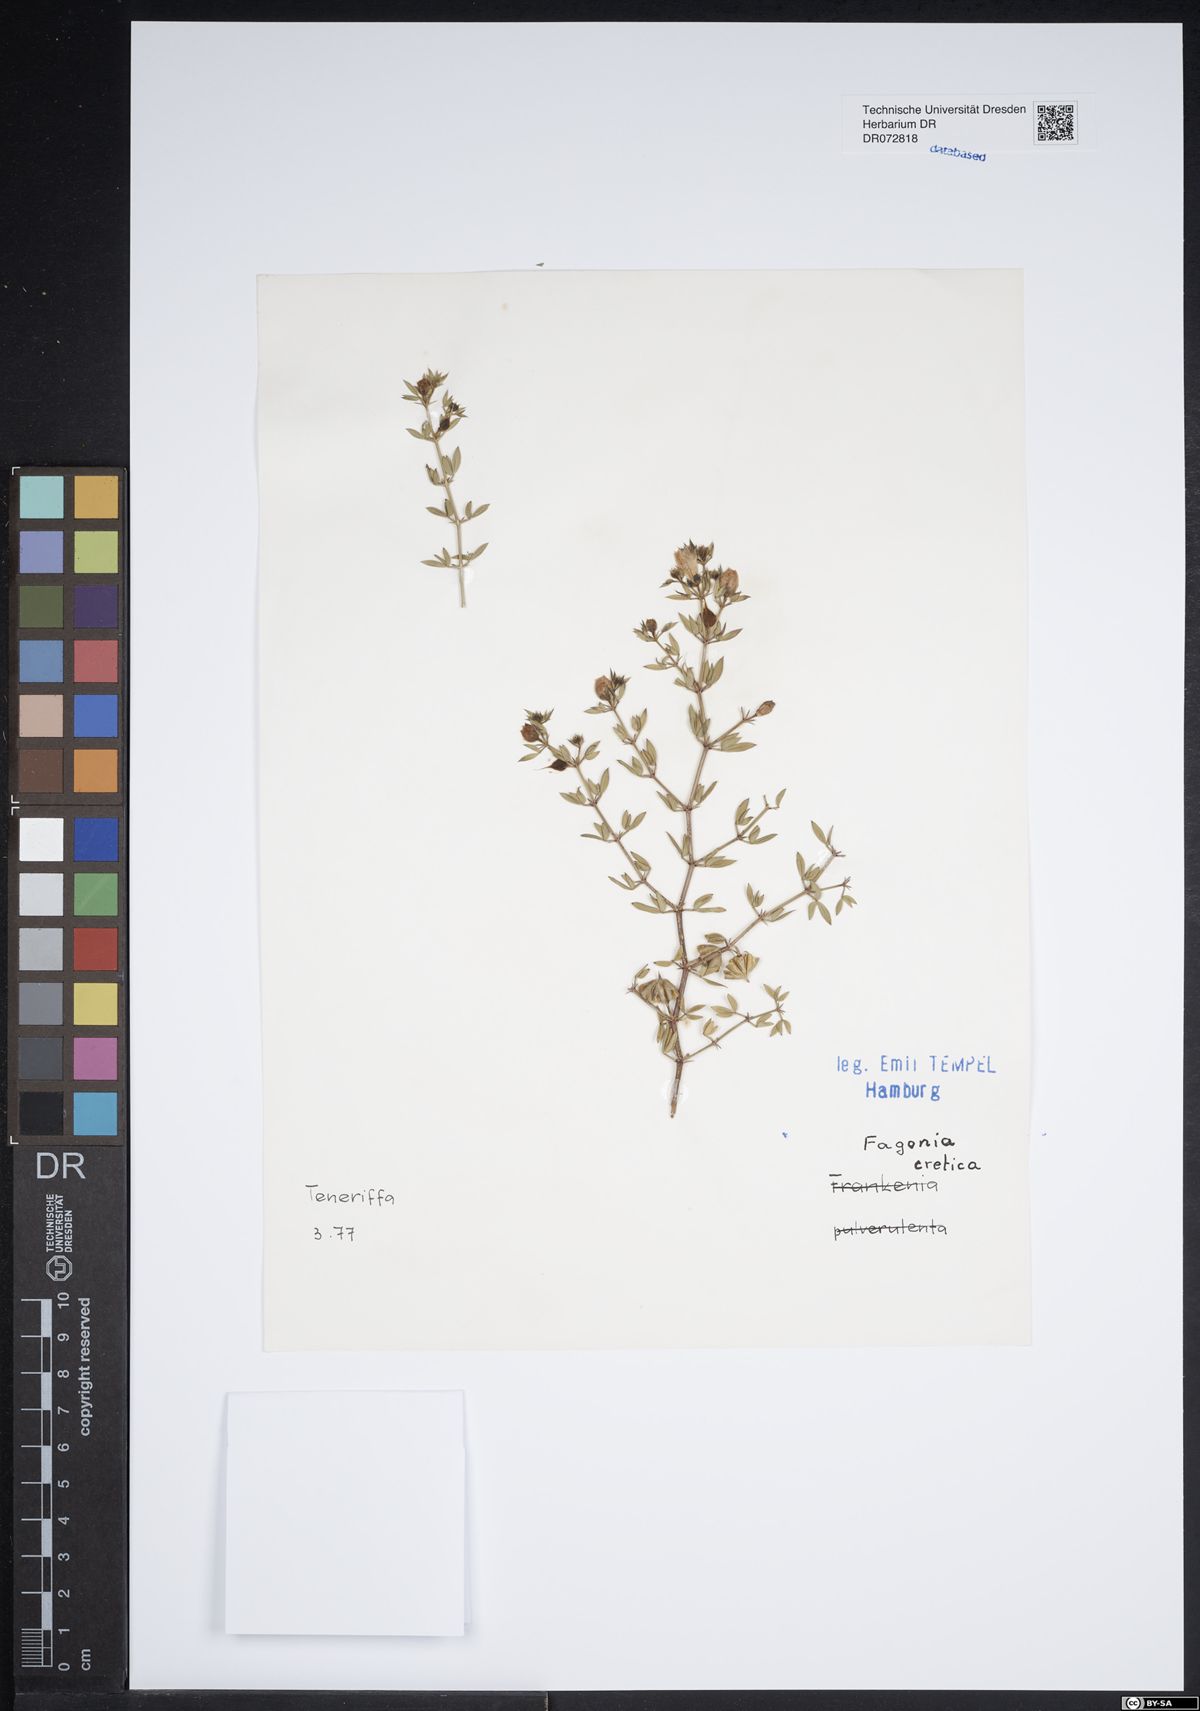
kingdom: Plantae
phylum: Tracheophyta
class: Magnoliopsida
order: Zygophyllales
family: Zygophyllaceae
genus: Fagonia
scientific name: Fagonia cretica
